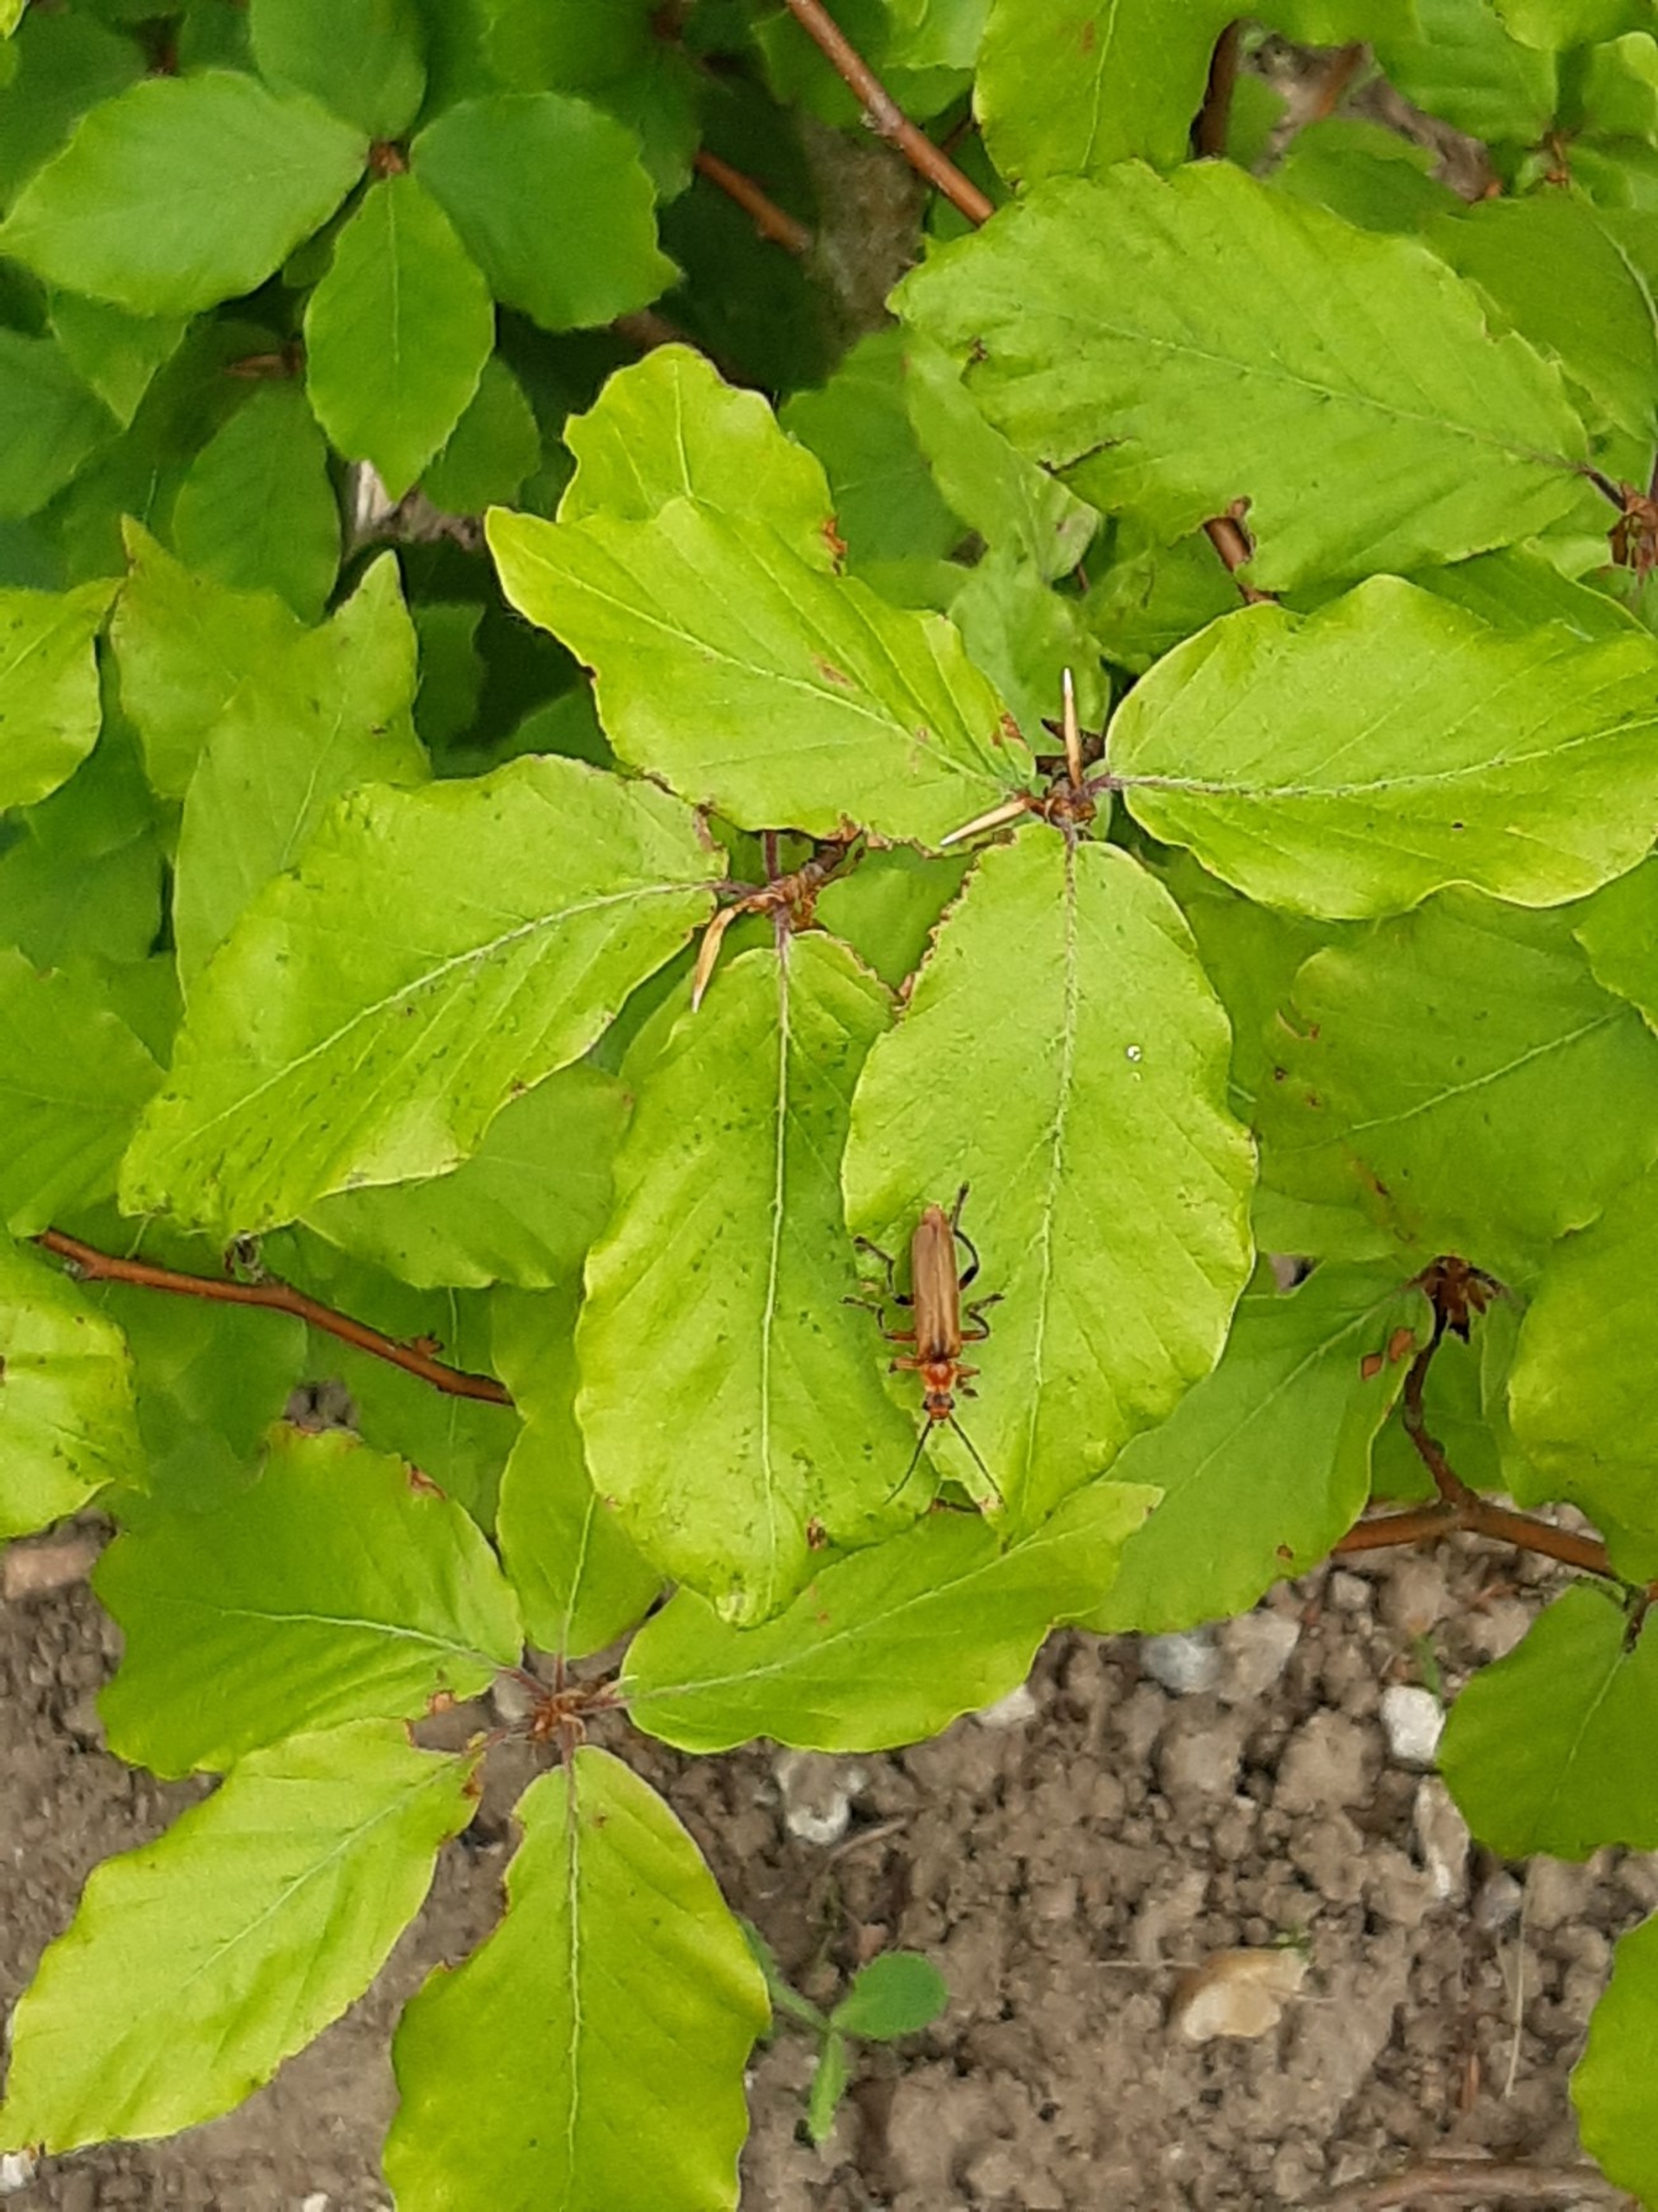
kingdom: Animalia
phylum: Arthropoda
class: Insecta
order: Coleoptera
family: Cantharidae
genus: Cantharis
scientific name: Cantharis livida
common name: Gul blødvinge
